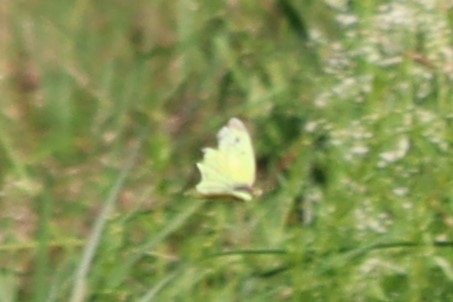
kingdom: Animalia
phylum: Arthropoda
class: Insecta
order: Lepidoptera
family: Pieridae
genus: Colias
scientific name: Colias philodice
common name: Clouded Sulphur
